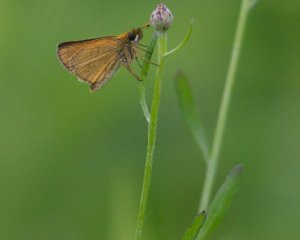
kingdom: Animalia
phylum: Arthropoda
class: Insecta
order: Lepidoptera
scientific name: Lepidoptera
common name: Butterflies
